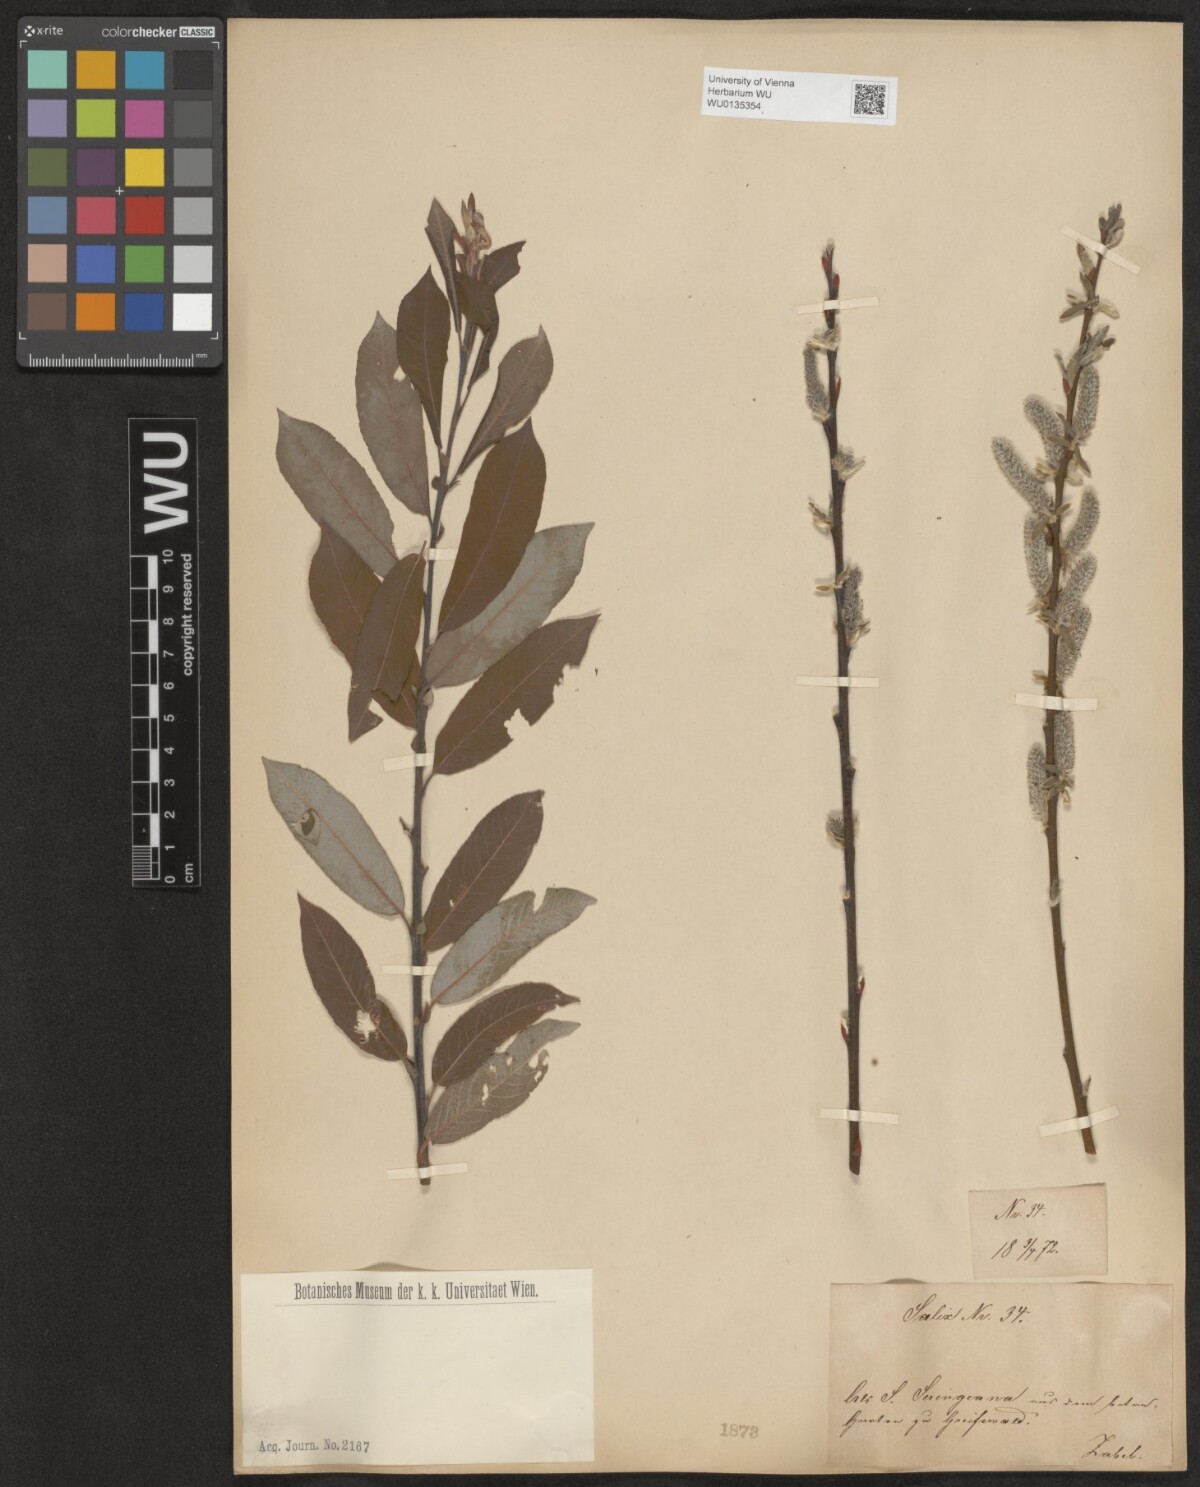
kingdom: Plantae
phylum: Tracheophyta
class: Magnoliopsida
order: Malpighiales
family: Salicaceae
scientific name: Salicaceae
